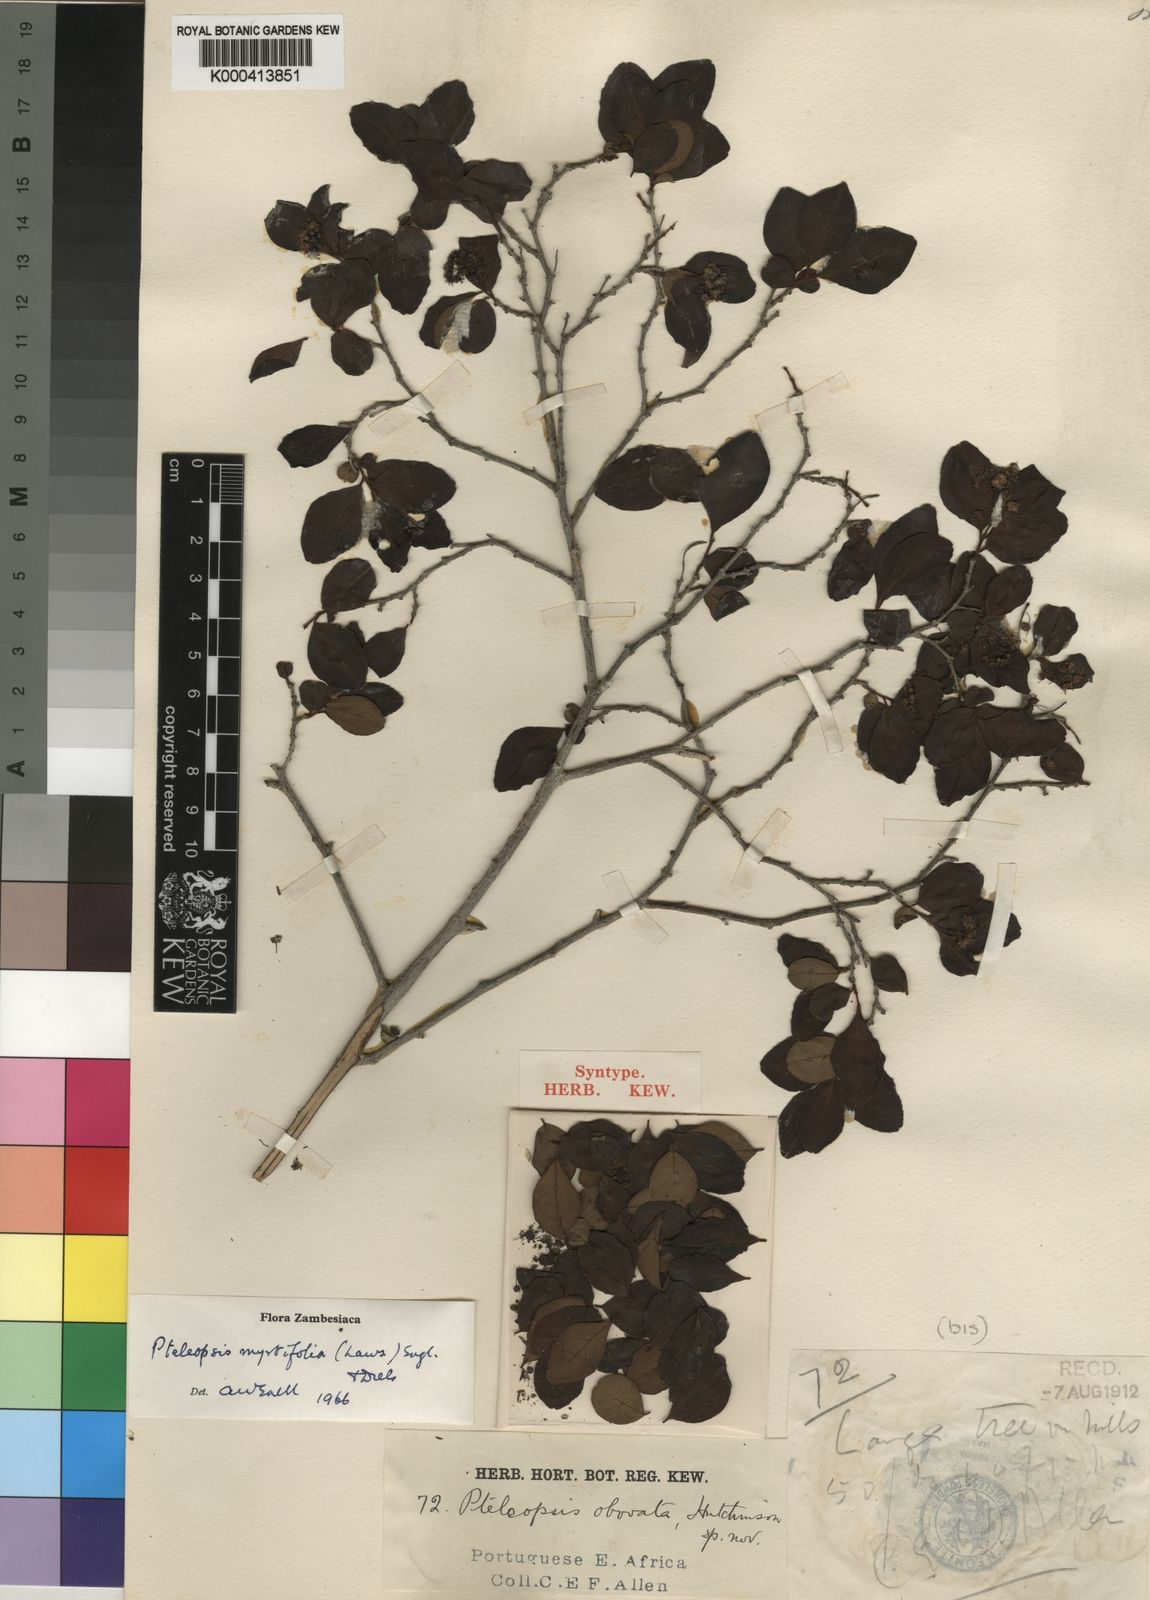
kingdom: Plantae
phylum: Tracheophyta
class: Magnoliopsida
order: Myrtales
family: Combretaceae
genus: Terminalia
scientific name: Terminalia myrtifolia
